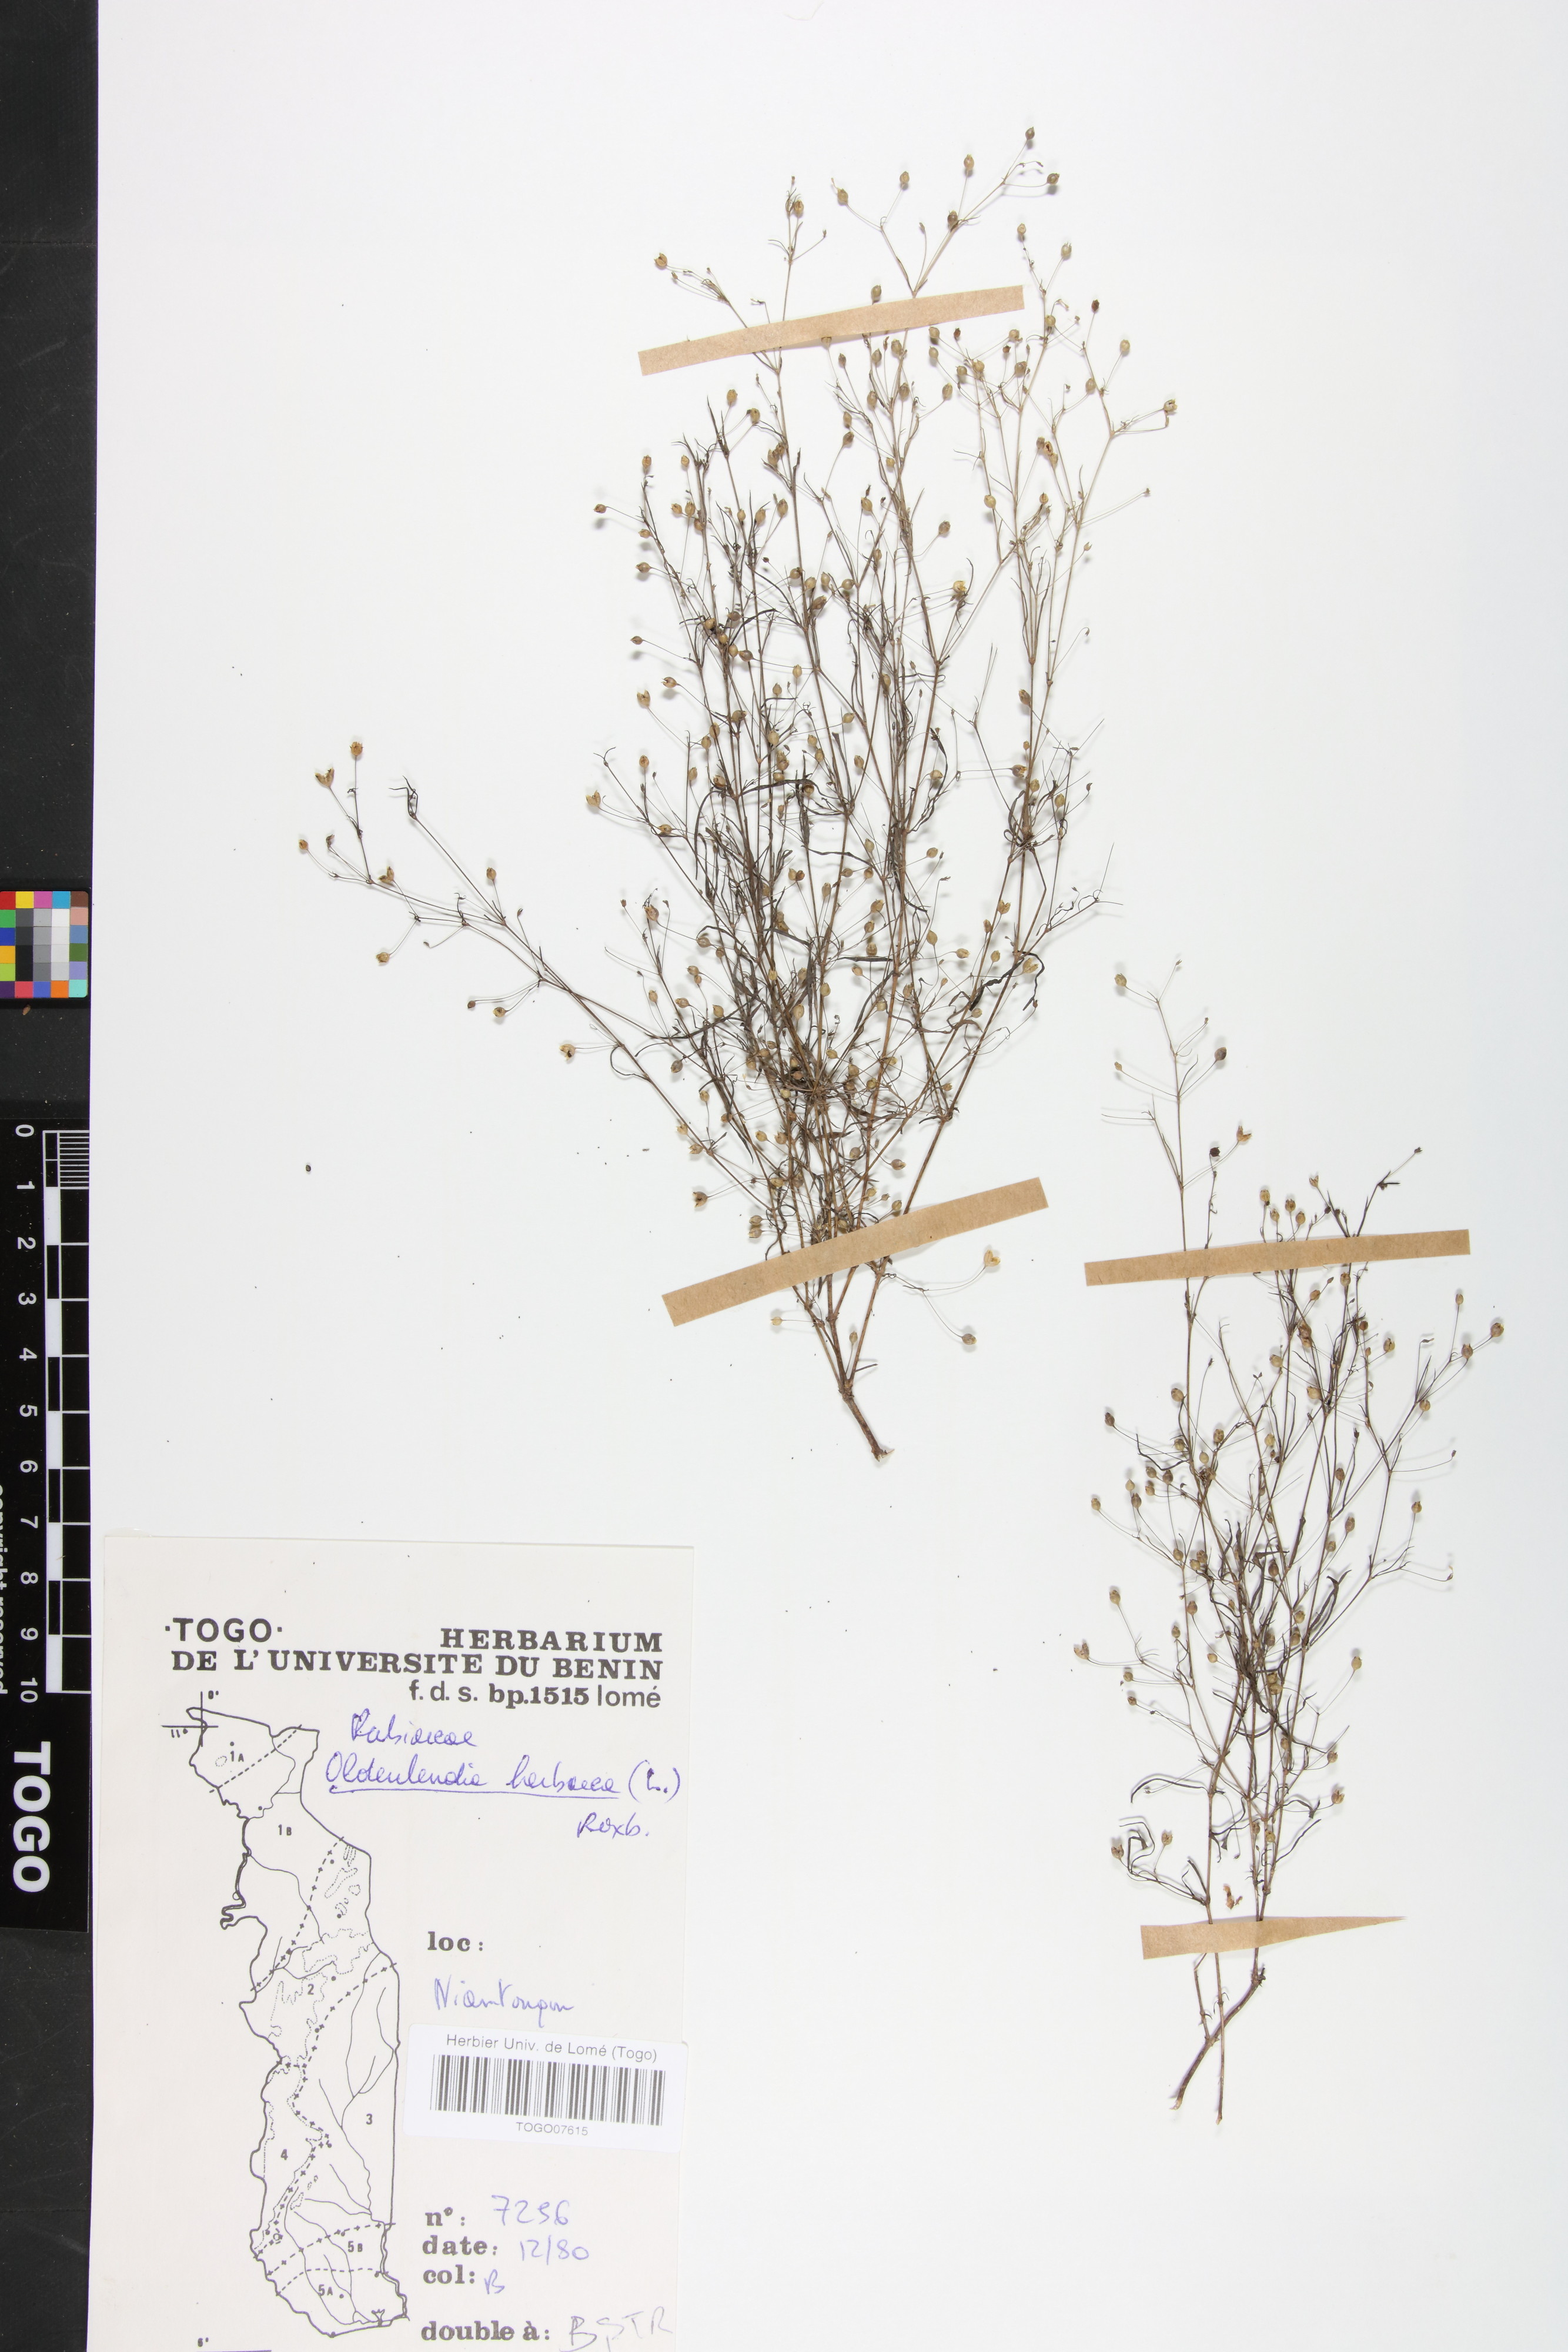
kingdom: Plantae
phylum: Tracheophyta
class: Magnoliopsida
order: Gentianales
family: Rubiaceae
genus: Oldenlandia
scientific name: Oldenlandia herbacea
